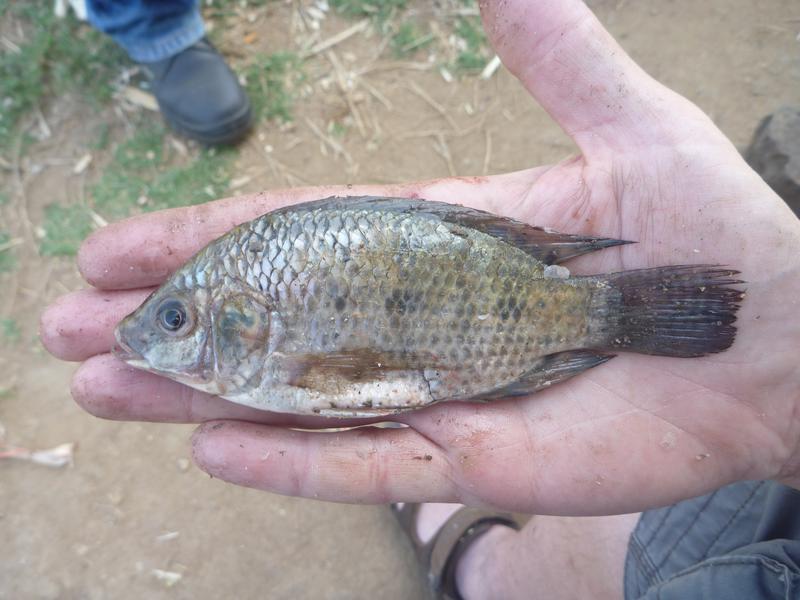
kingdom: Animalia
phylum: Chordata
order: Perciformes
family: Cichlidae
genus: Oreochromis
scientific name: Oreochromis urolepis
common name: Wami tilapia
